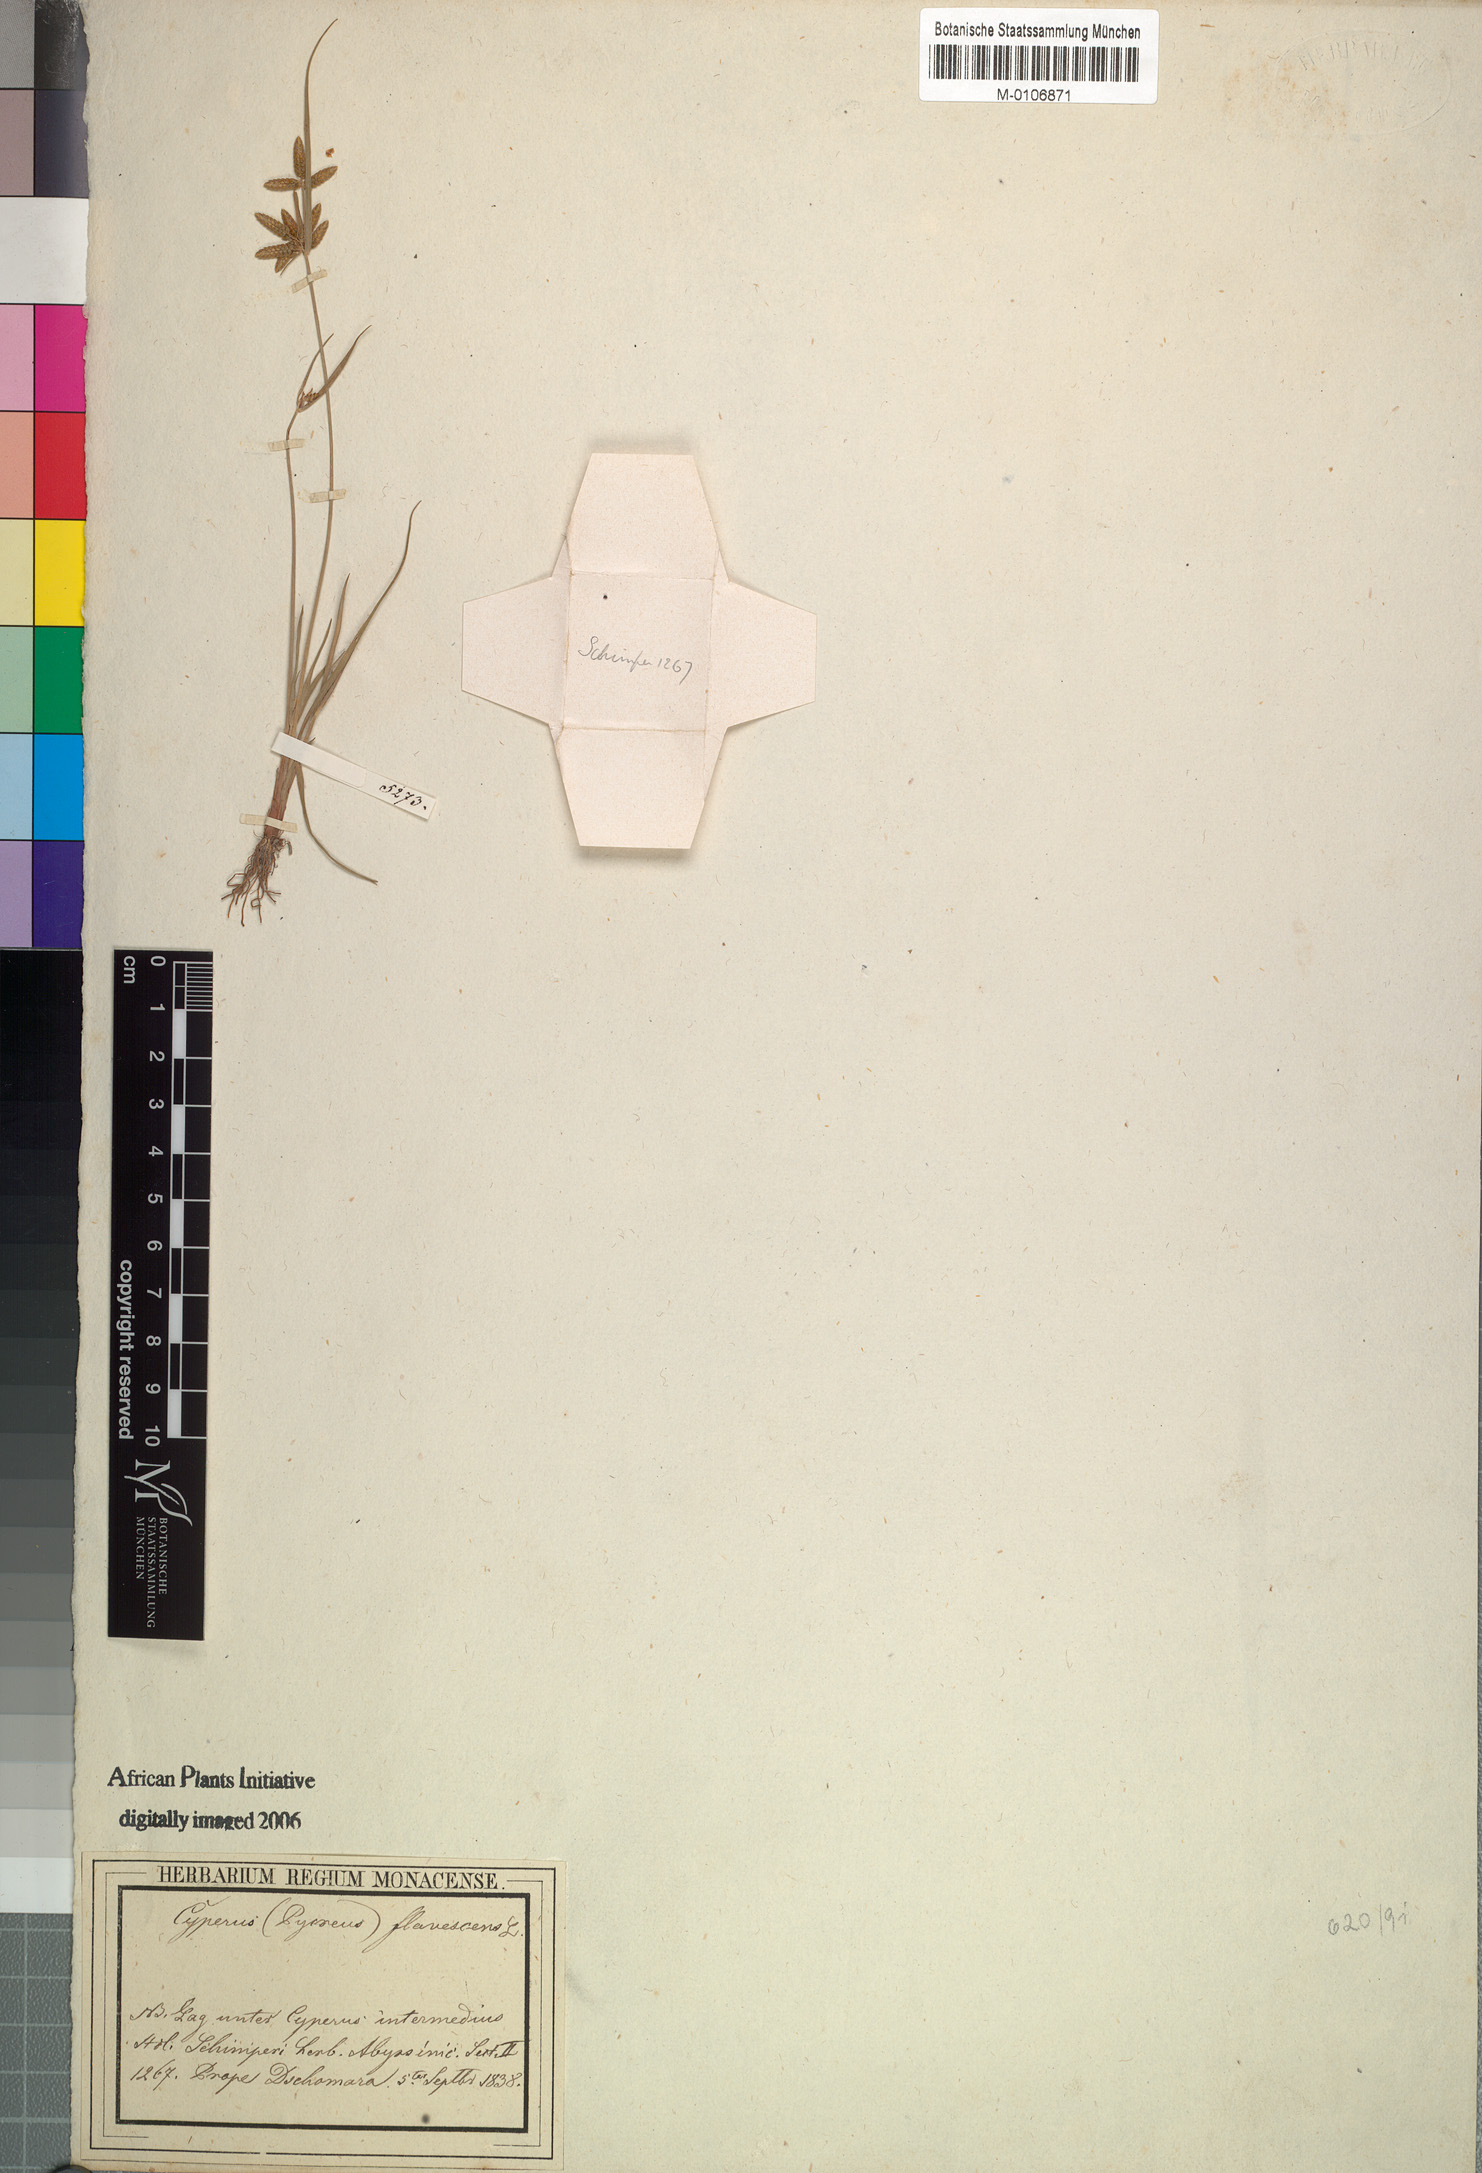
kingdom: Plantae
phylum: Tracheophyta
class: Liliopsida
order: Poales
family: Cyperaceae
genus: Cyperus
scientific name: Cyperus flavescens
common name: Yellow galingale
